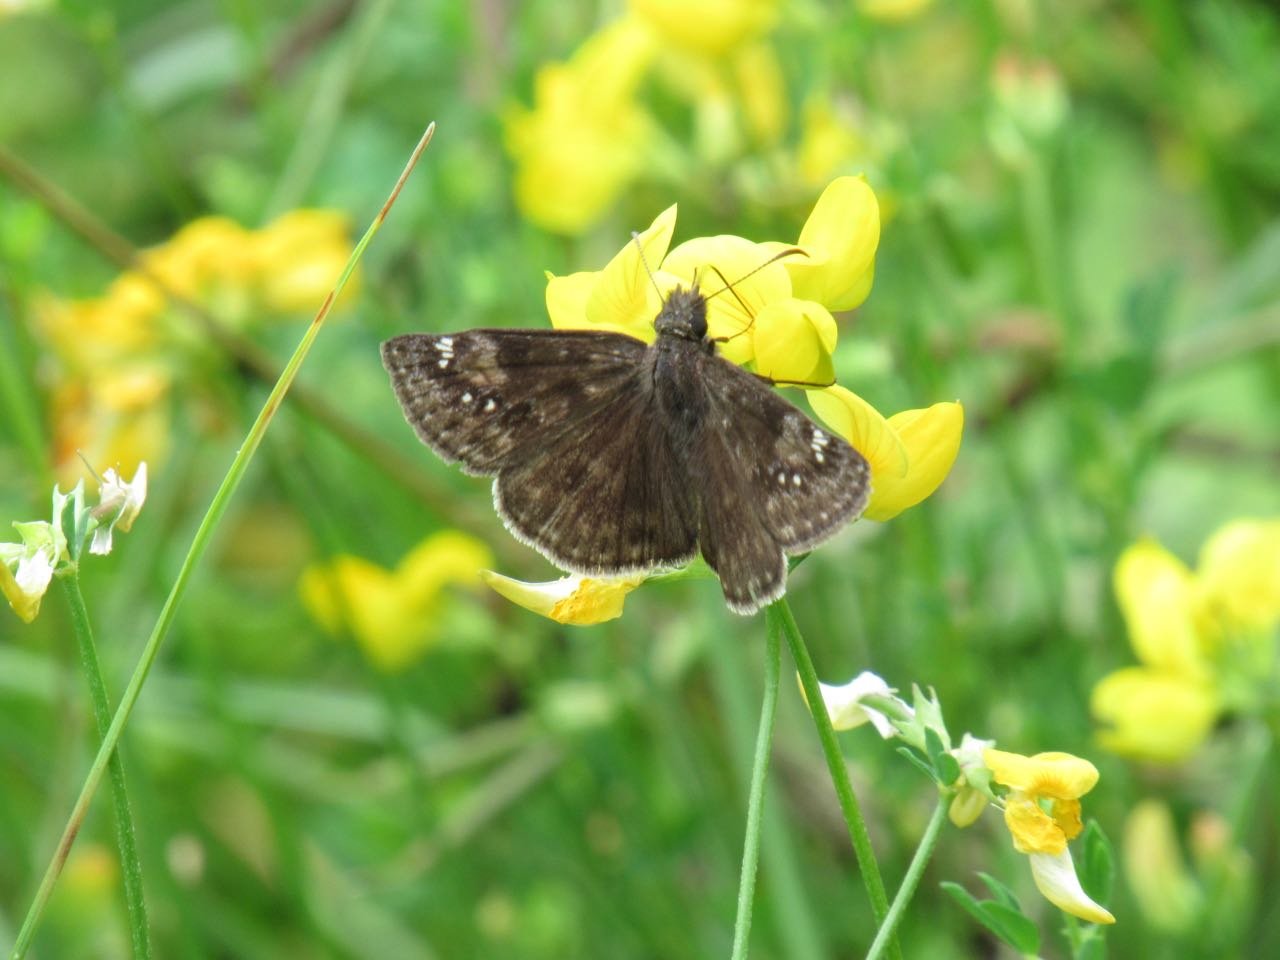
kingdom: Animalia
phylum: Arthropoda
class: Insecta
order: Lepidoptera
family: Hesperiidae
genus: Gesta
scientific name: Gesta
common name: Wild Indigo Duskywing
